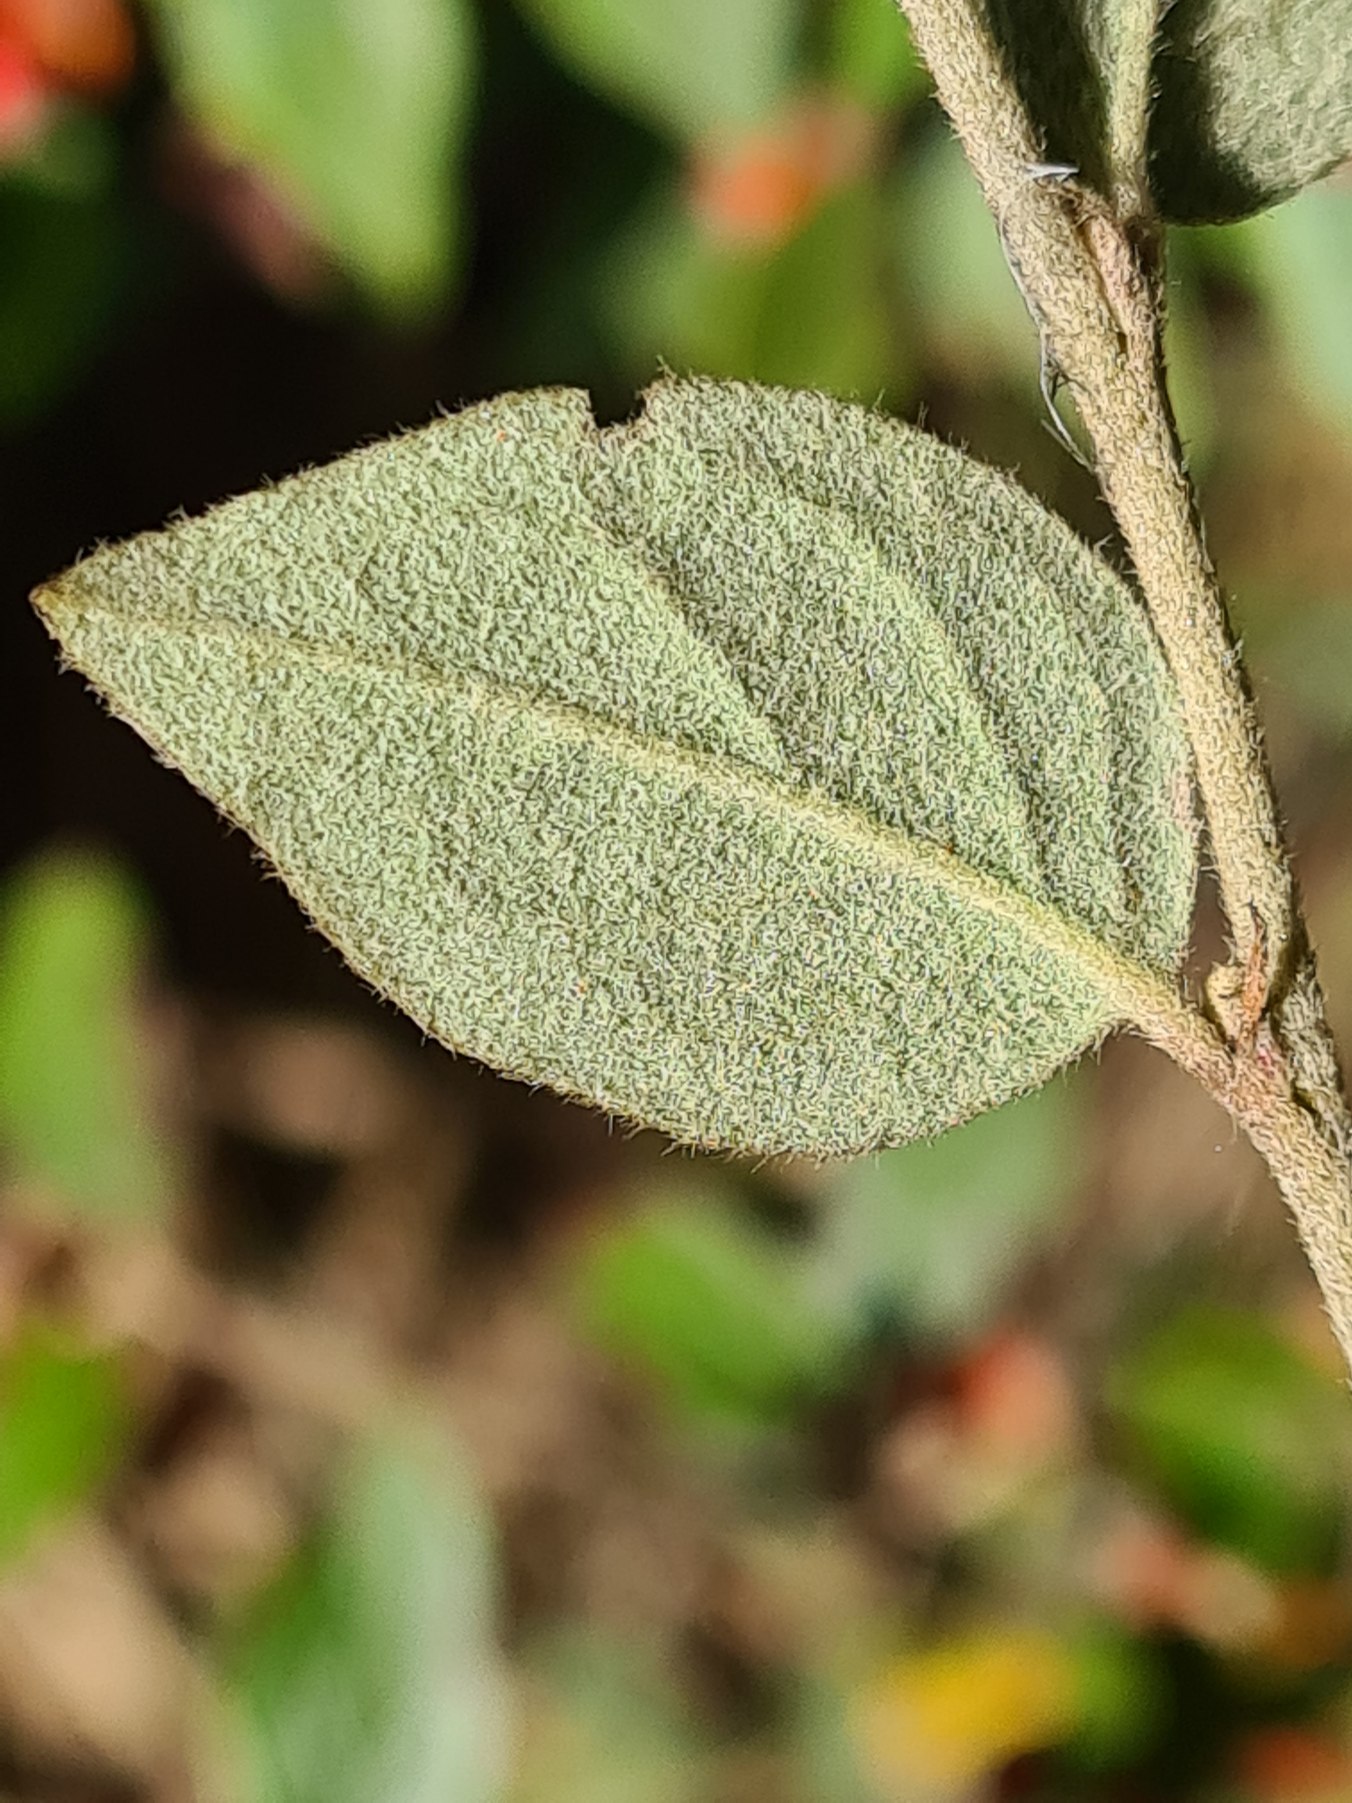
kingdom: Plantae
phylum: Tracheophyta
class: Magnoliopsida
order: Rosales
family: Rosaceae
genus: Cotoneaster
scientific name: Cotoneaster dielsianus
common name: Kinesisk dværgmispel
